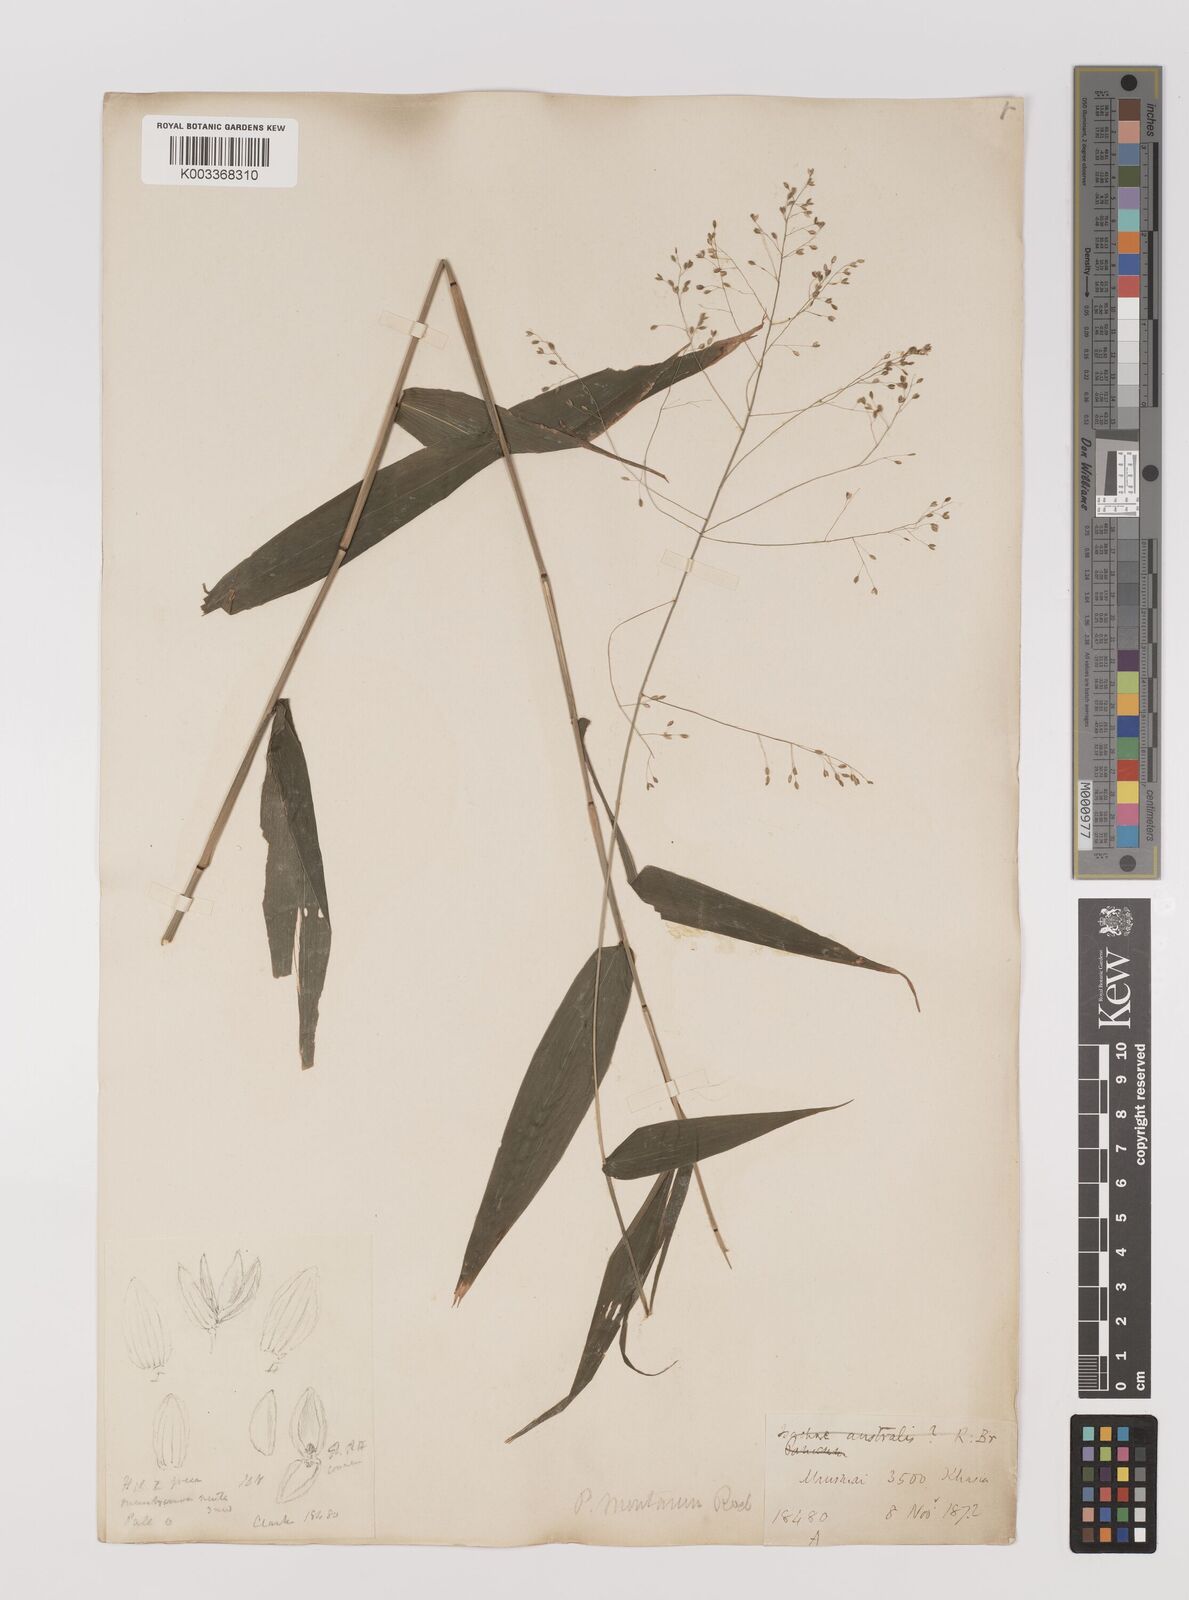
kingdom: Plantae
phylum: Tracheophyta
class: Liliopsida
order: Poales
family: Poaceae
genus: Panicum
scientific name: Panicum notatum
